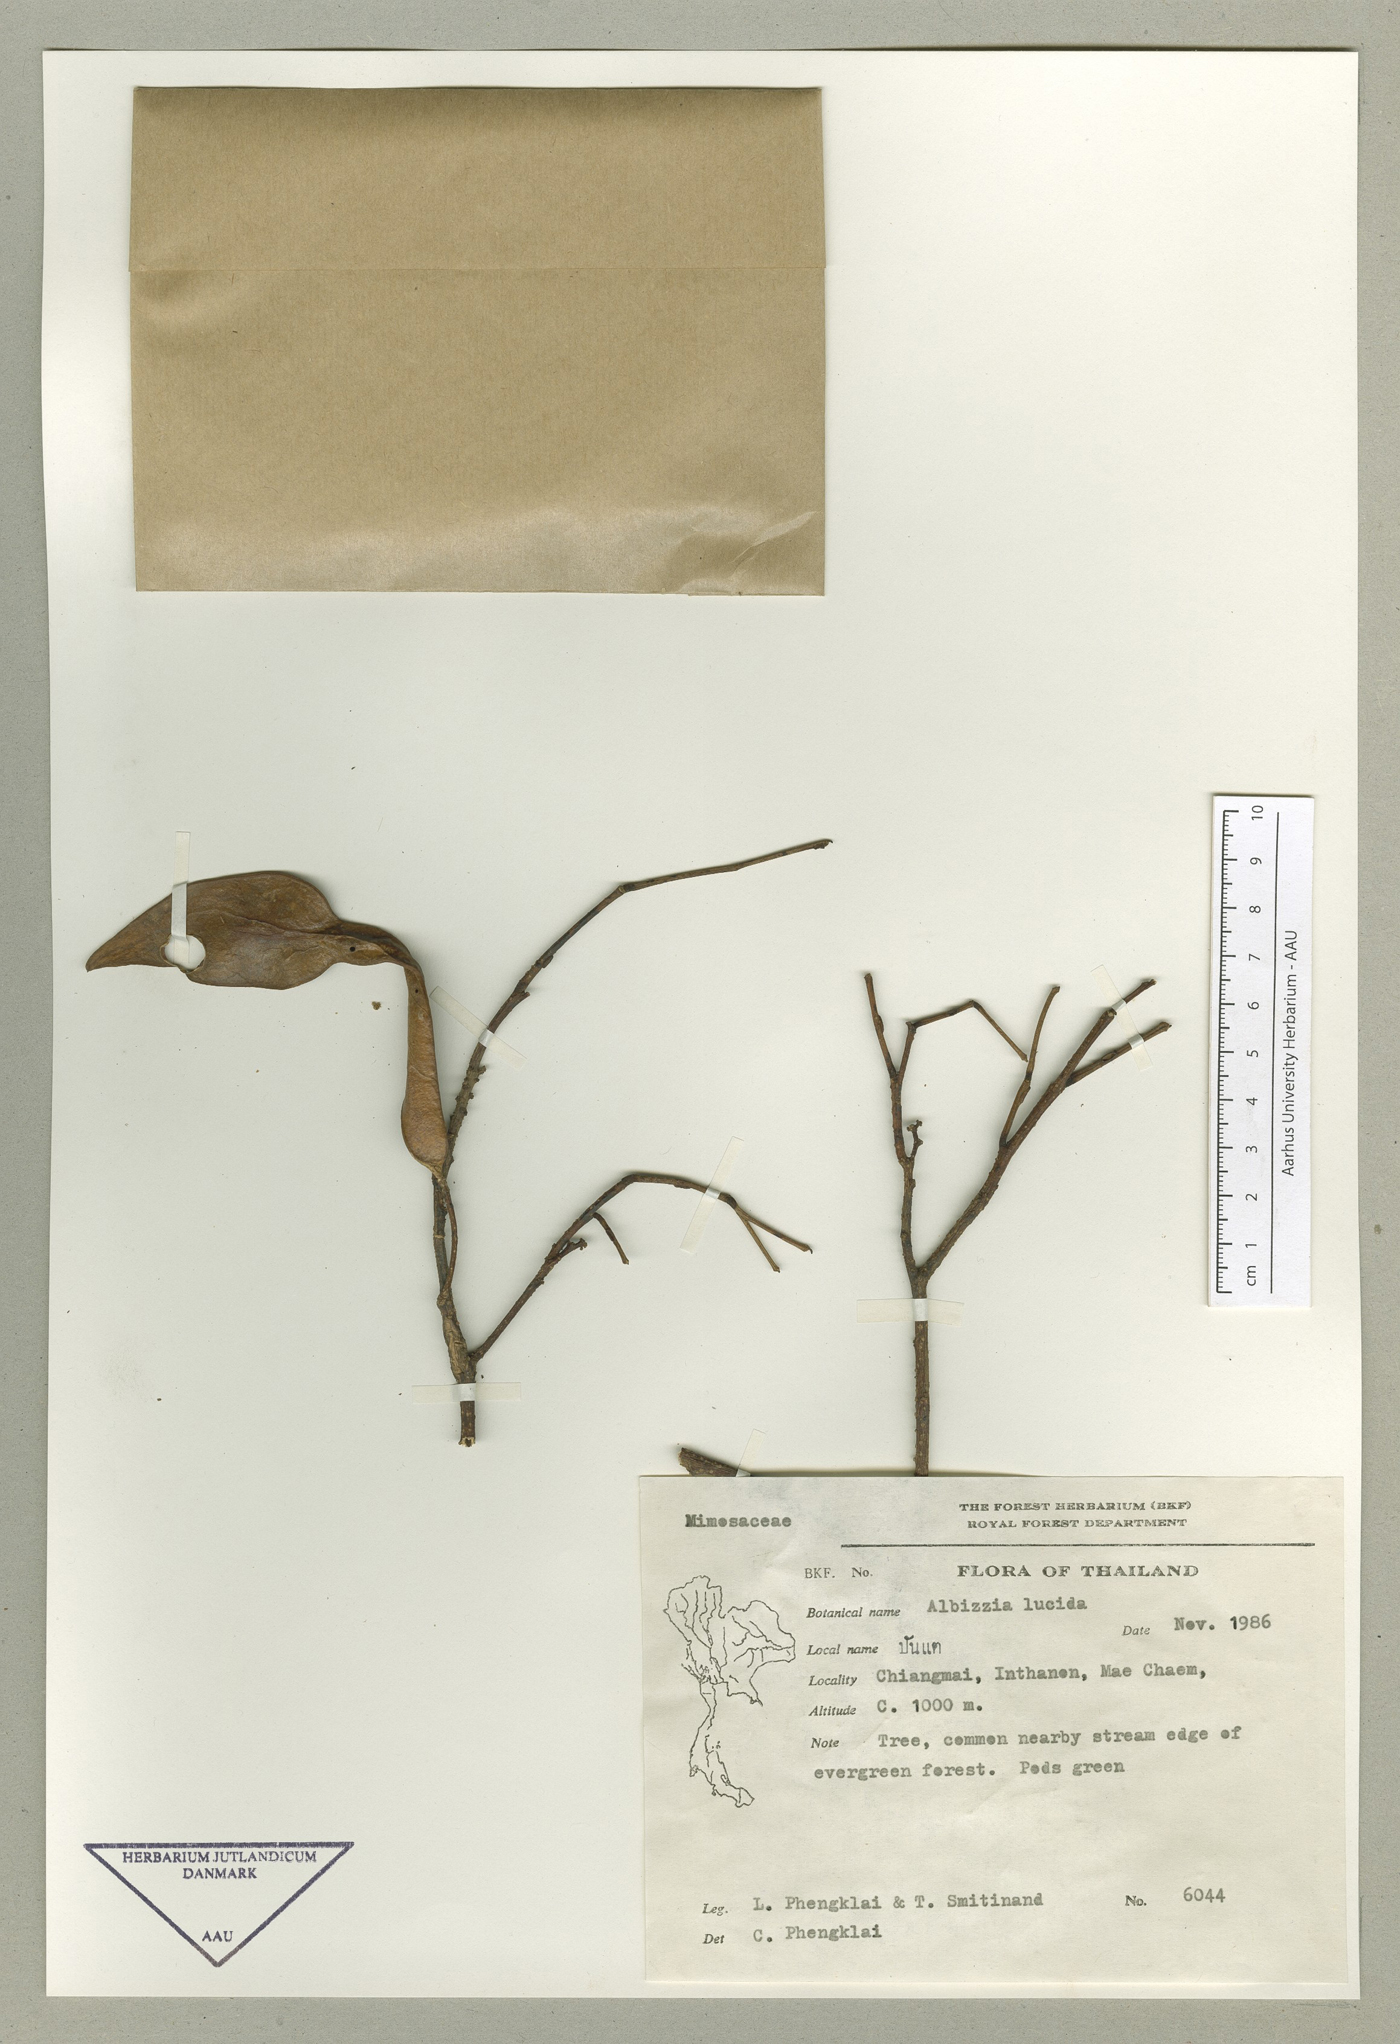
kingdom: Plantae
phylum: Tracheophyta
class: Magnoliopsida
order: Fabales
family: Fabaceae
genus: Albizia
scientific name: Albizia lucidior
